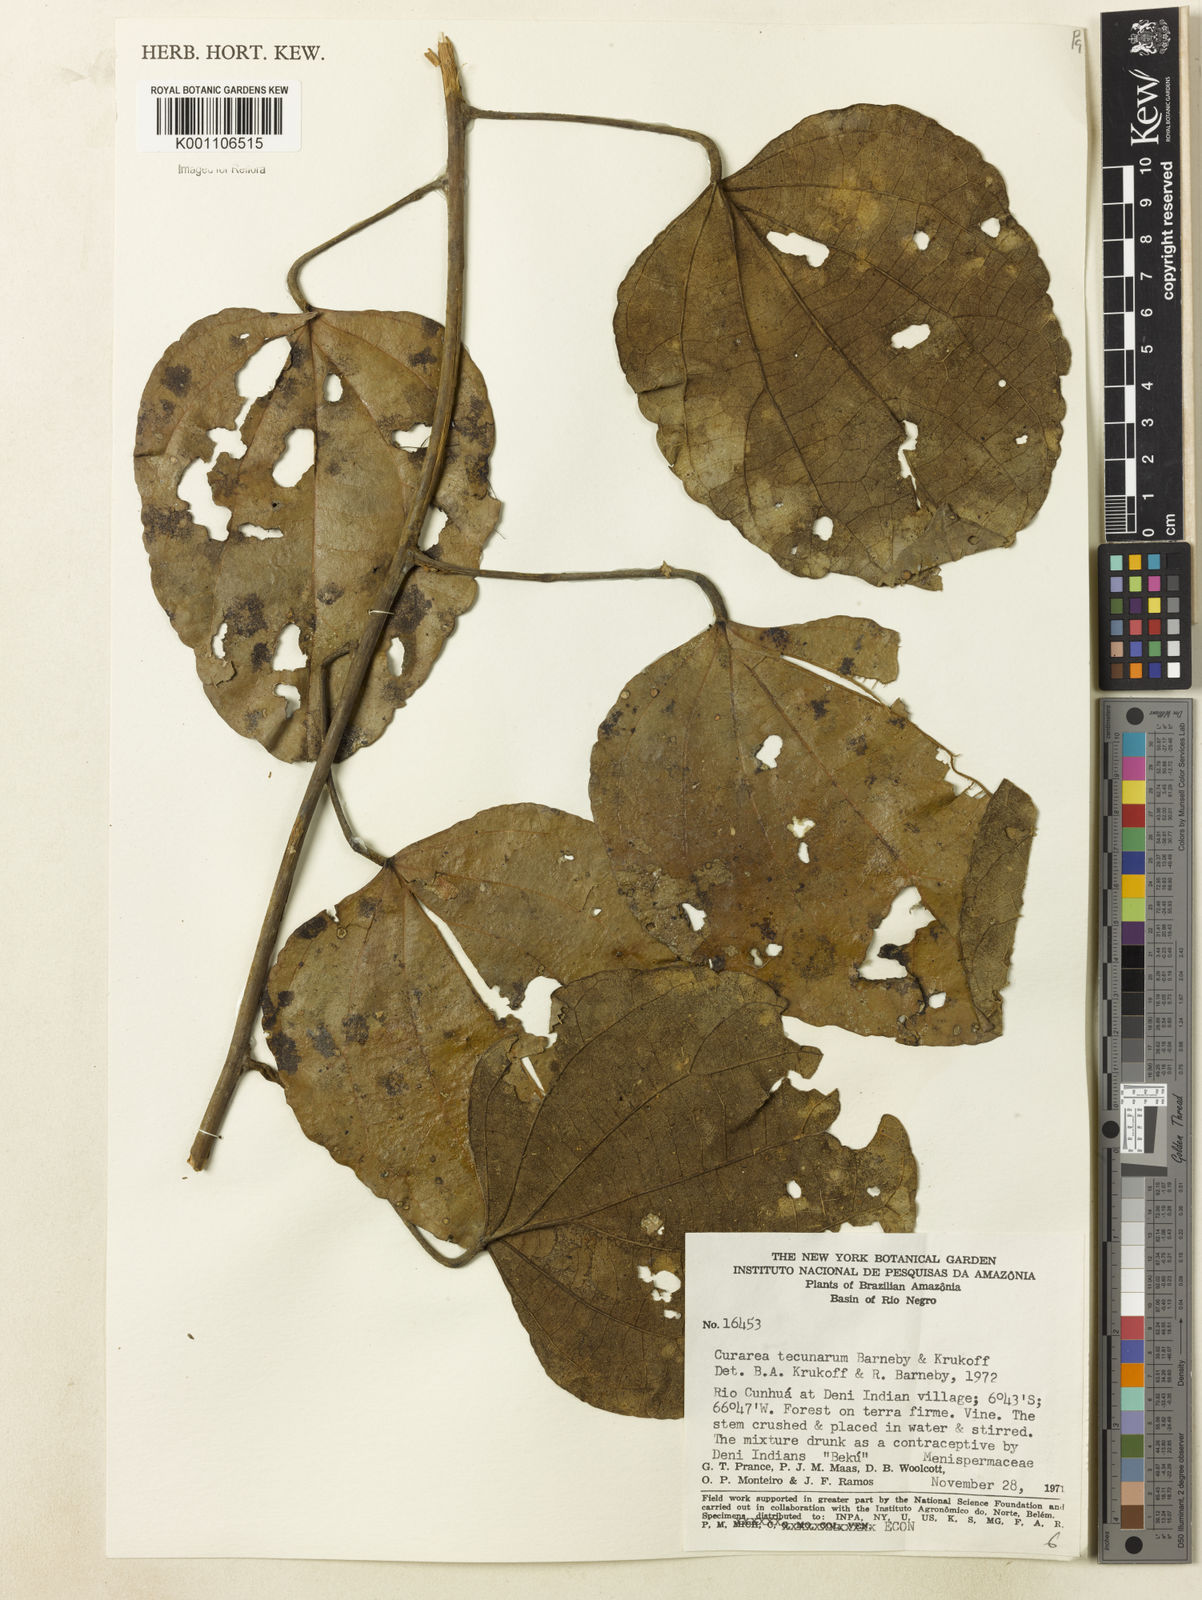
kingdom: Plantae
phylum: Tracheophyta
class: Magnoliopsida
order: Ranunculales
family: Menispermaceae
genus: Curarea
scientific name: Curarea tecunarum
